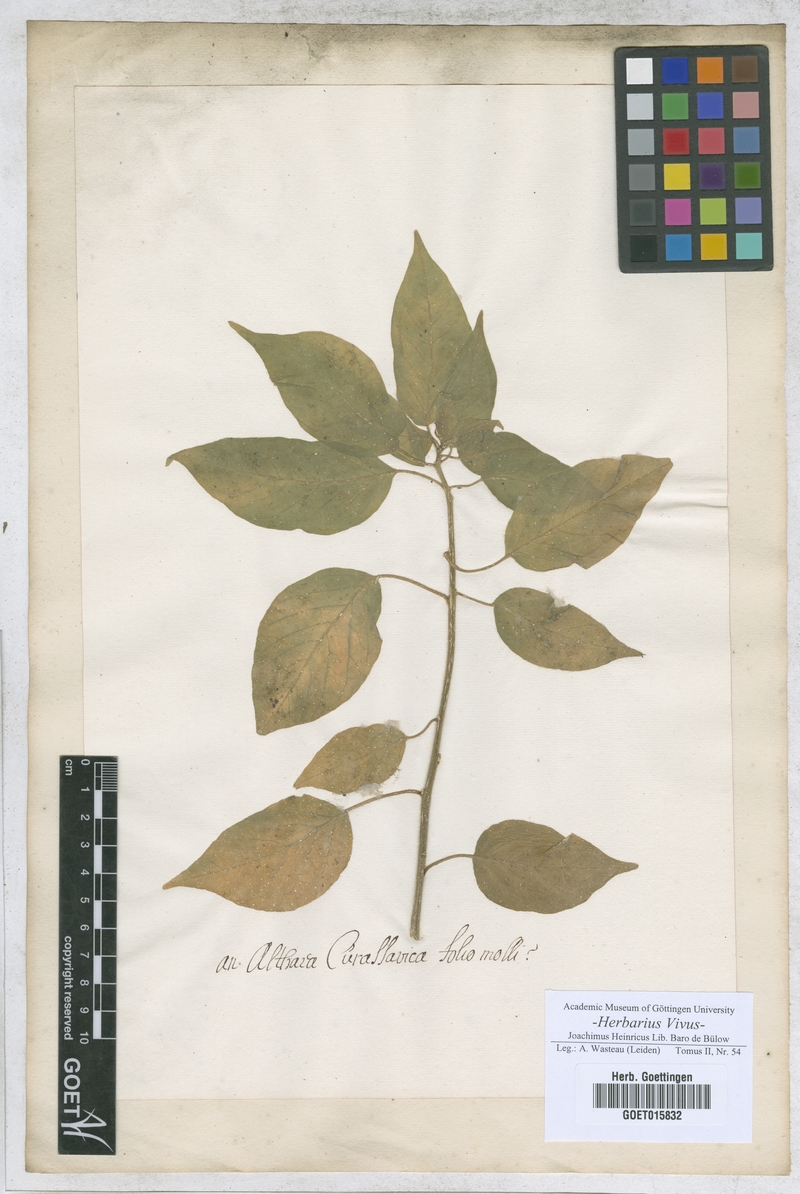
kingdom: Plantae
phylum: Tracheophyta
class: Magnoliopsida
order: Malvales
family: Malvaceae
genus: Althaea
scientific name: Althaea
